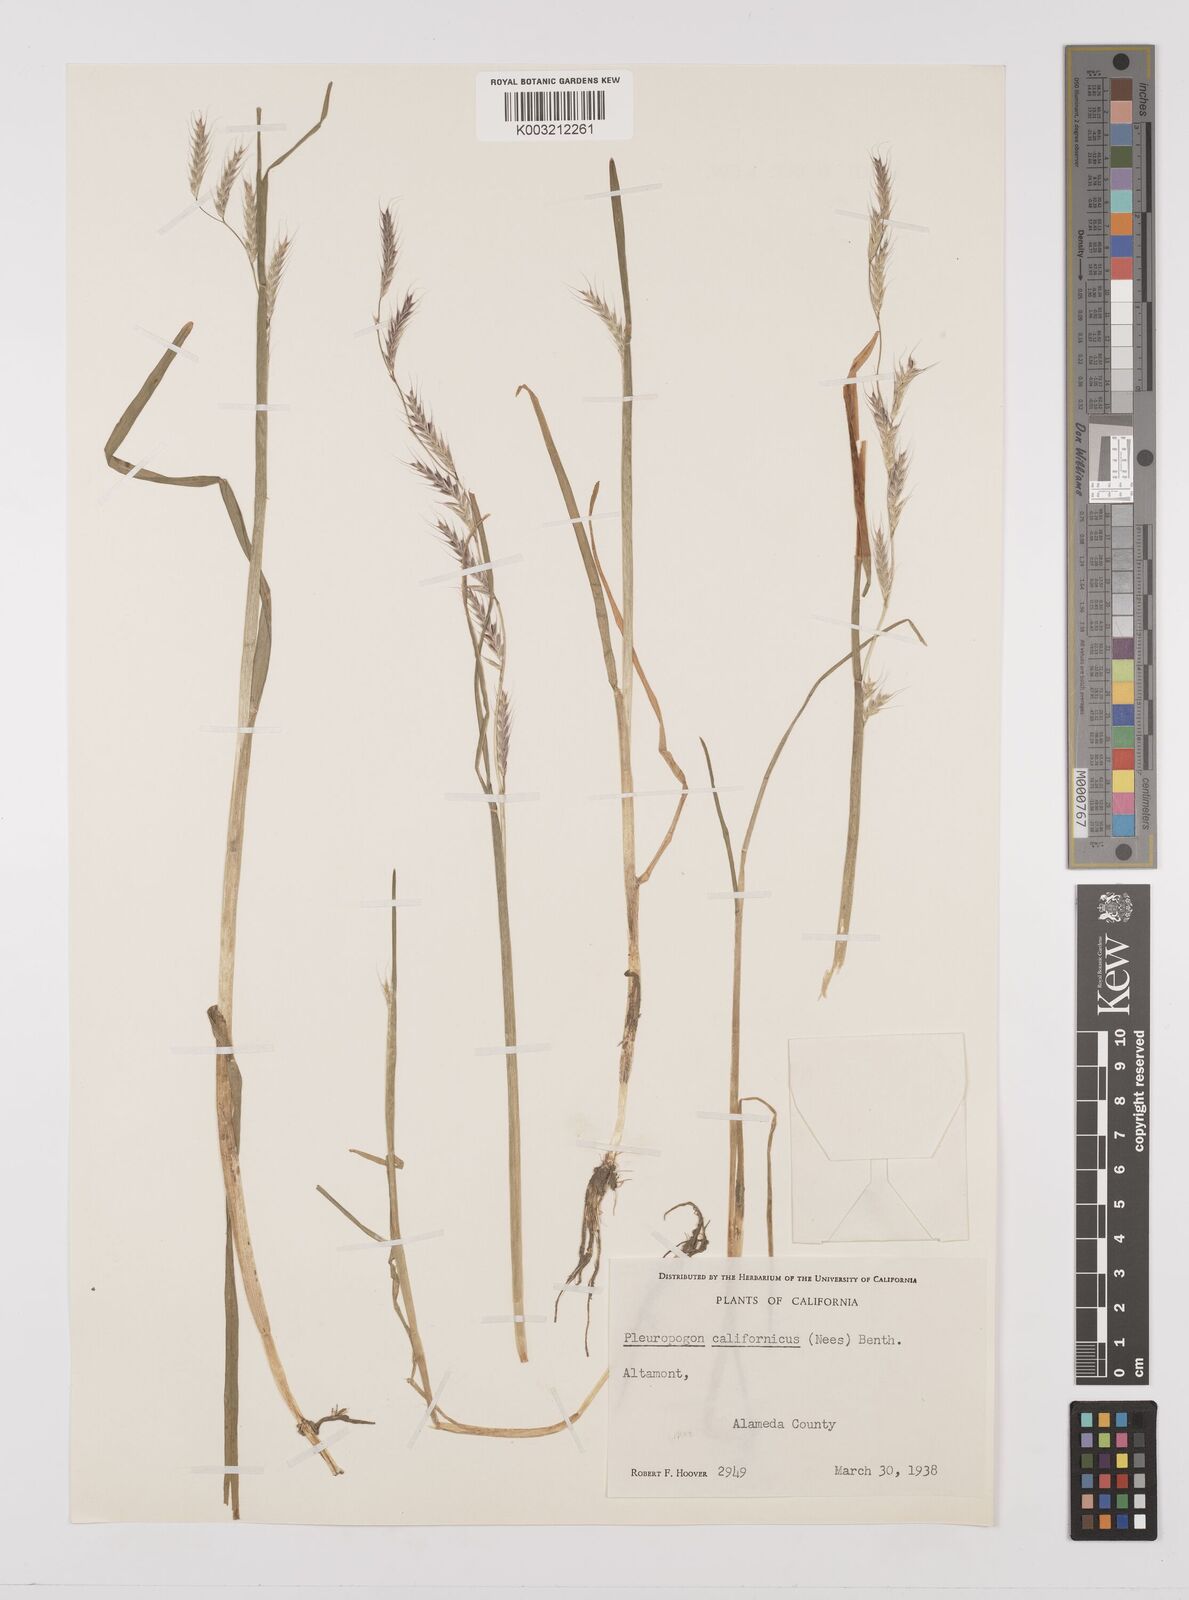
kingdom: Plantae
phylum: Tracheophyta
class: Liliopsida
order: Poales
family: Poaceae
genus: Pleuropogon
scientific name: Pleuropogon californicus
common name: California semaphore grass
